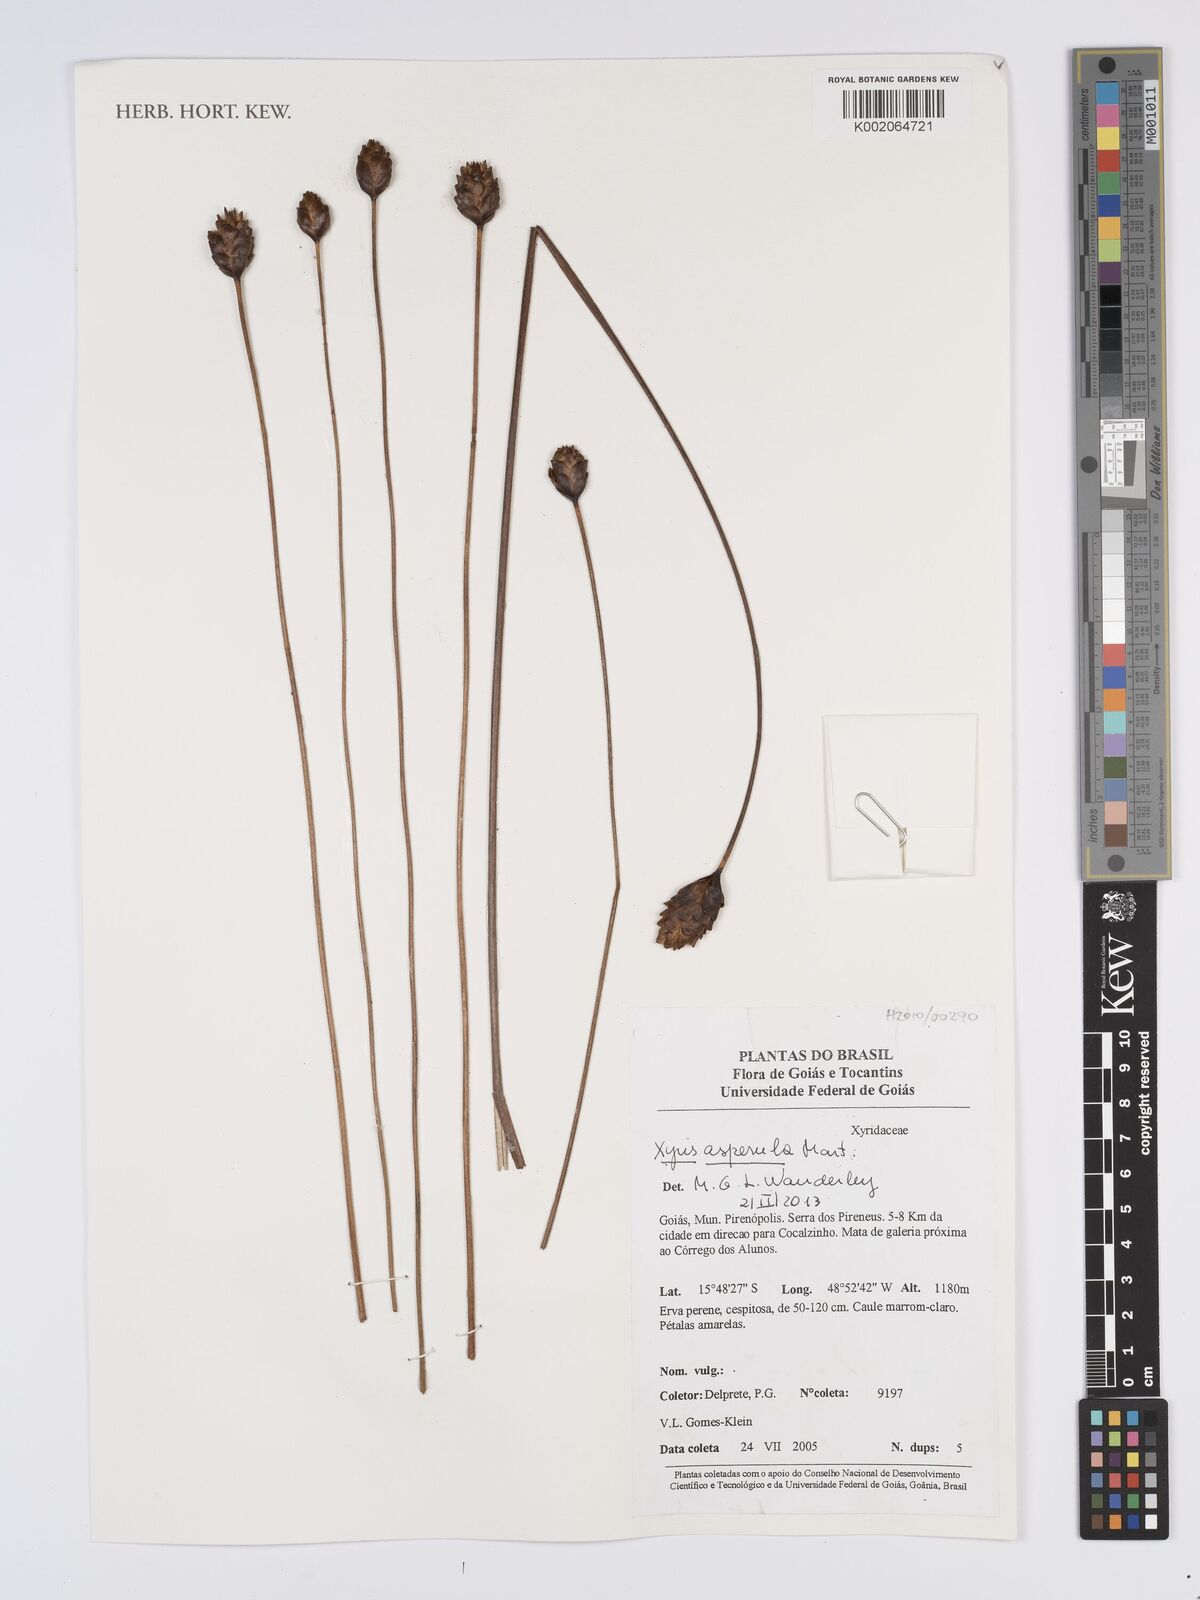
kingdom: Plantae
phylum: Tracheophyta
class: Liliopsida
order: Poales
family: Xyridaceae
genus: Xyris
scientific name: Xyris asperula
